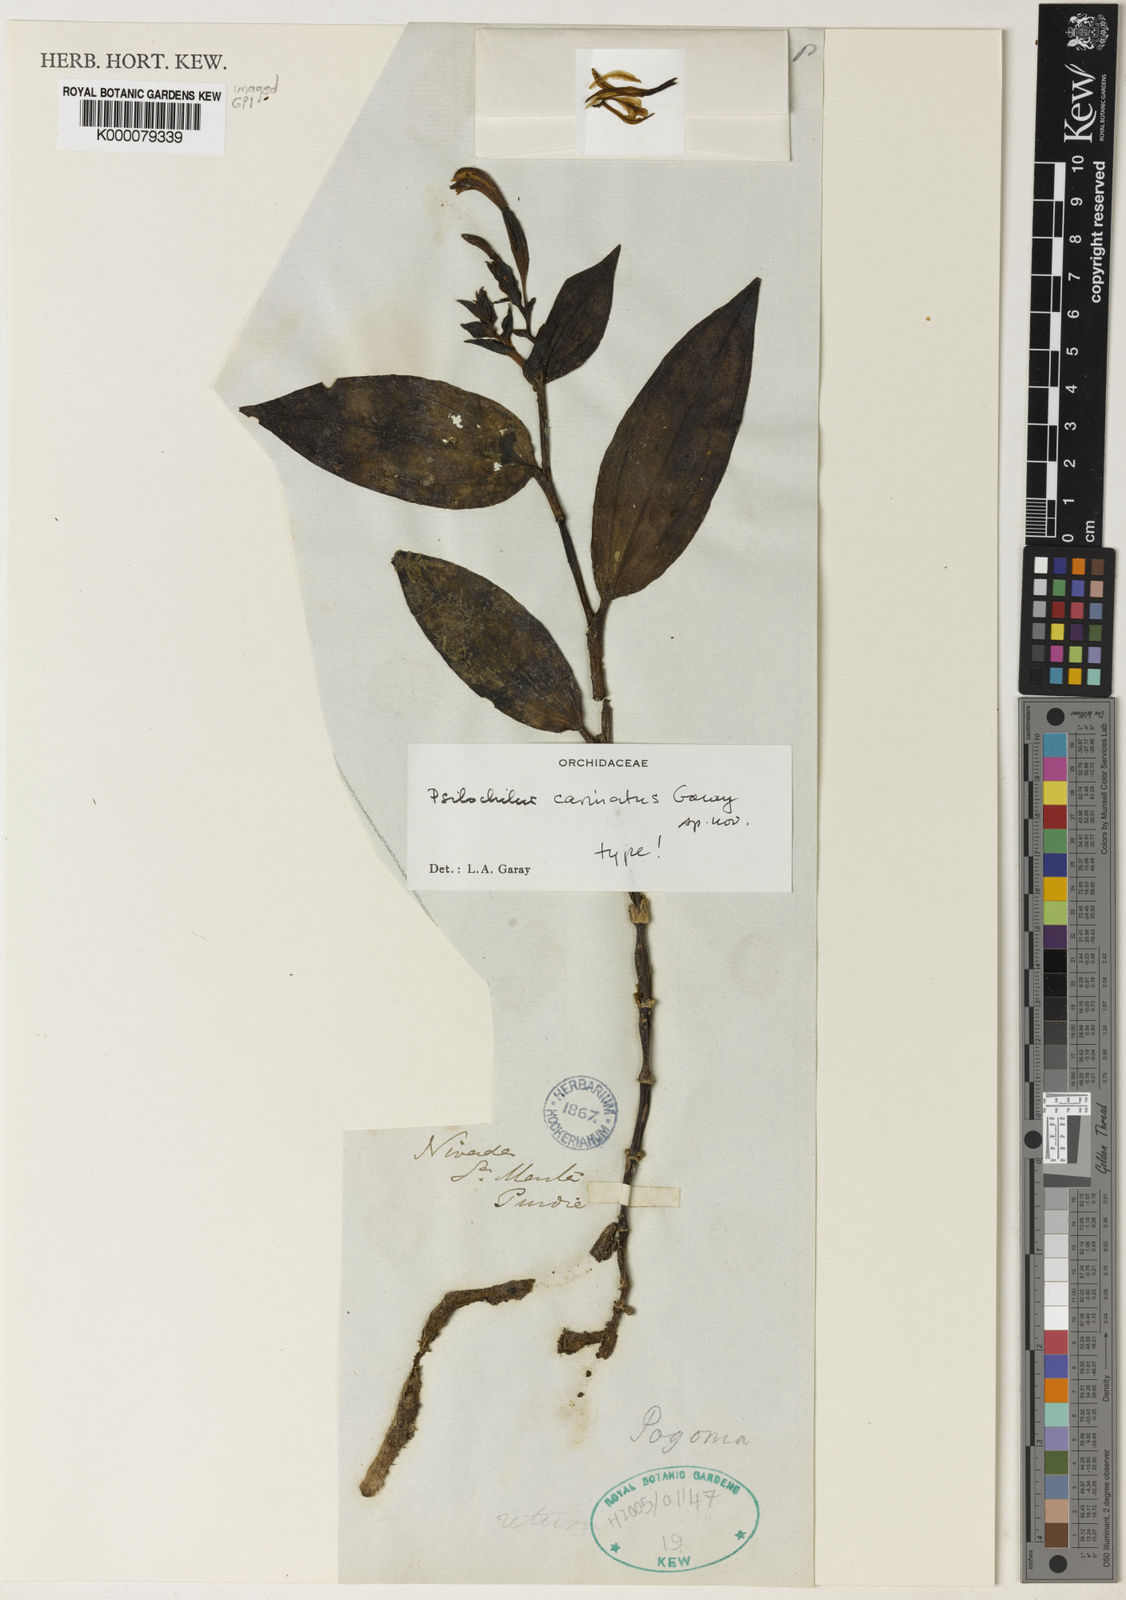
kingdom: Plantae
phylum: Tracheophyta
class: Liliopsida
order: Asparagales
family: Orchidaceae
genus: Psilochilus
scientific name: Psilochilus carinatus
